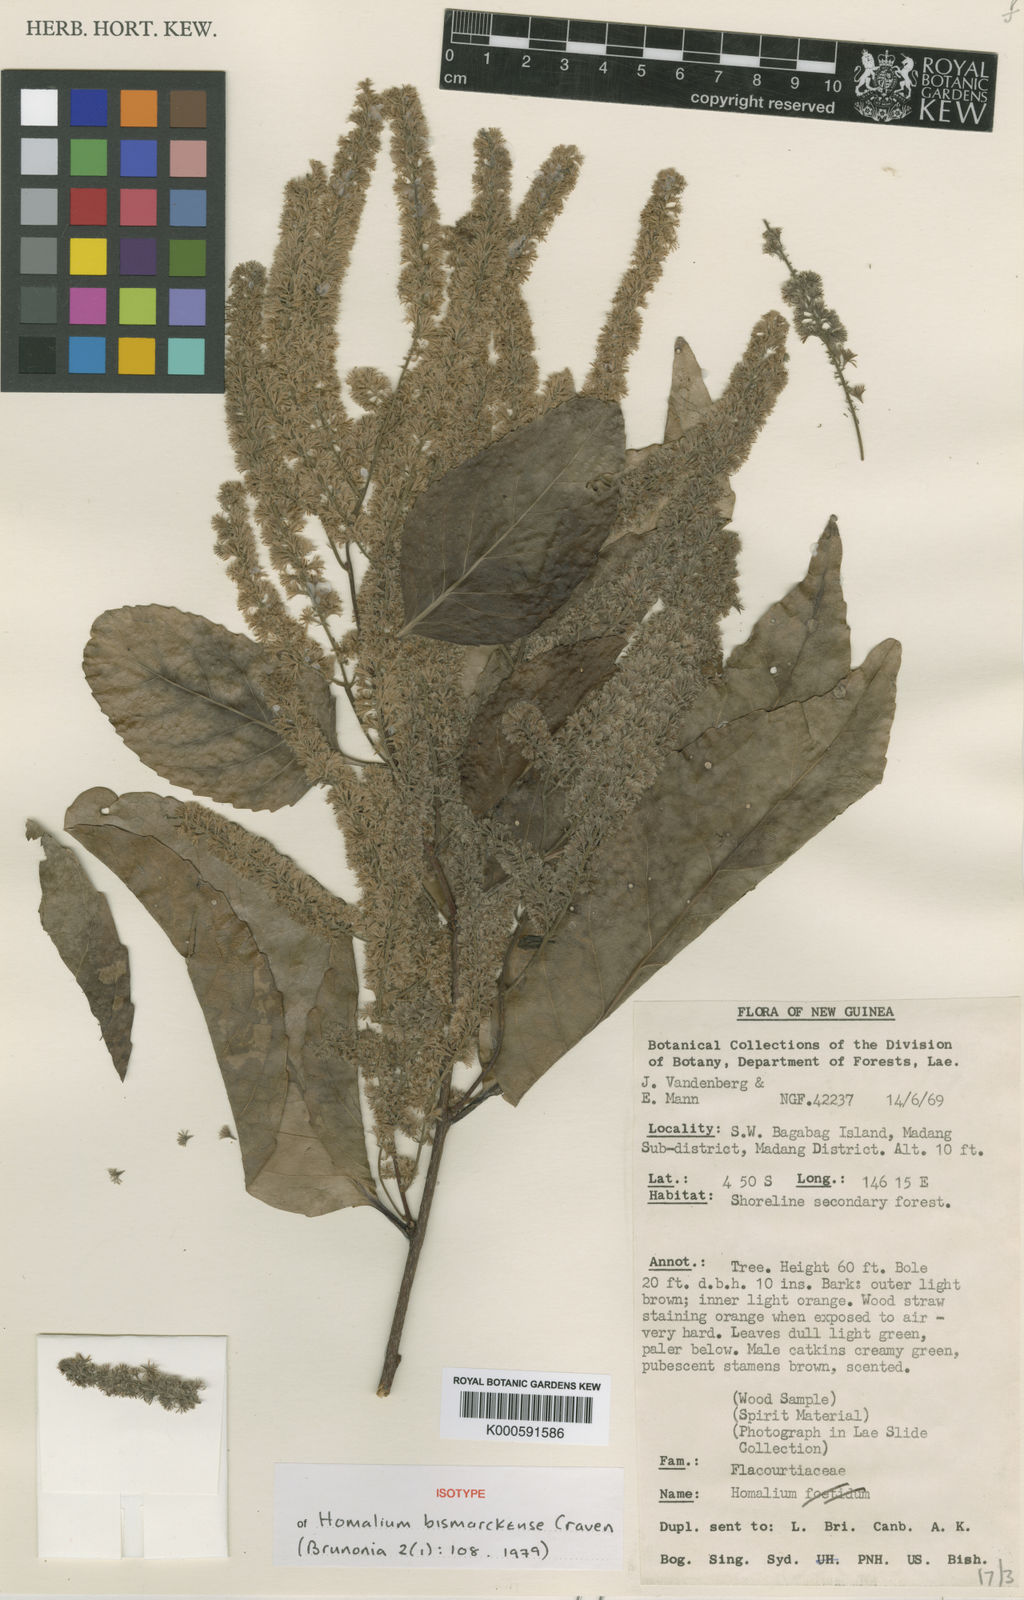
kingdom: Plantae
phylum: Tracheophyta
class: Magnoliopsida
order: Malpighiales
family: Salicaceae
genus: Homalium
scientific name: Homalium bismarckense
